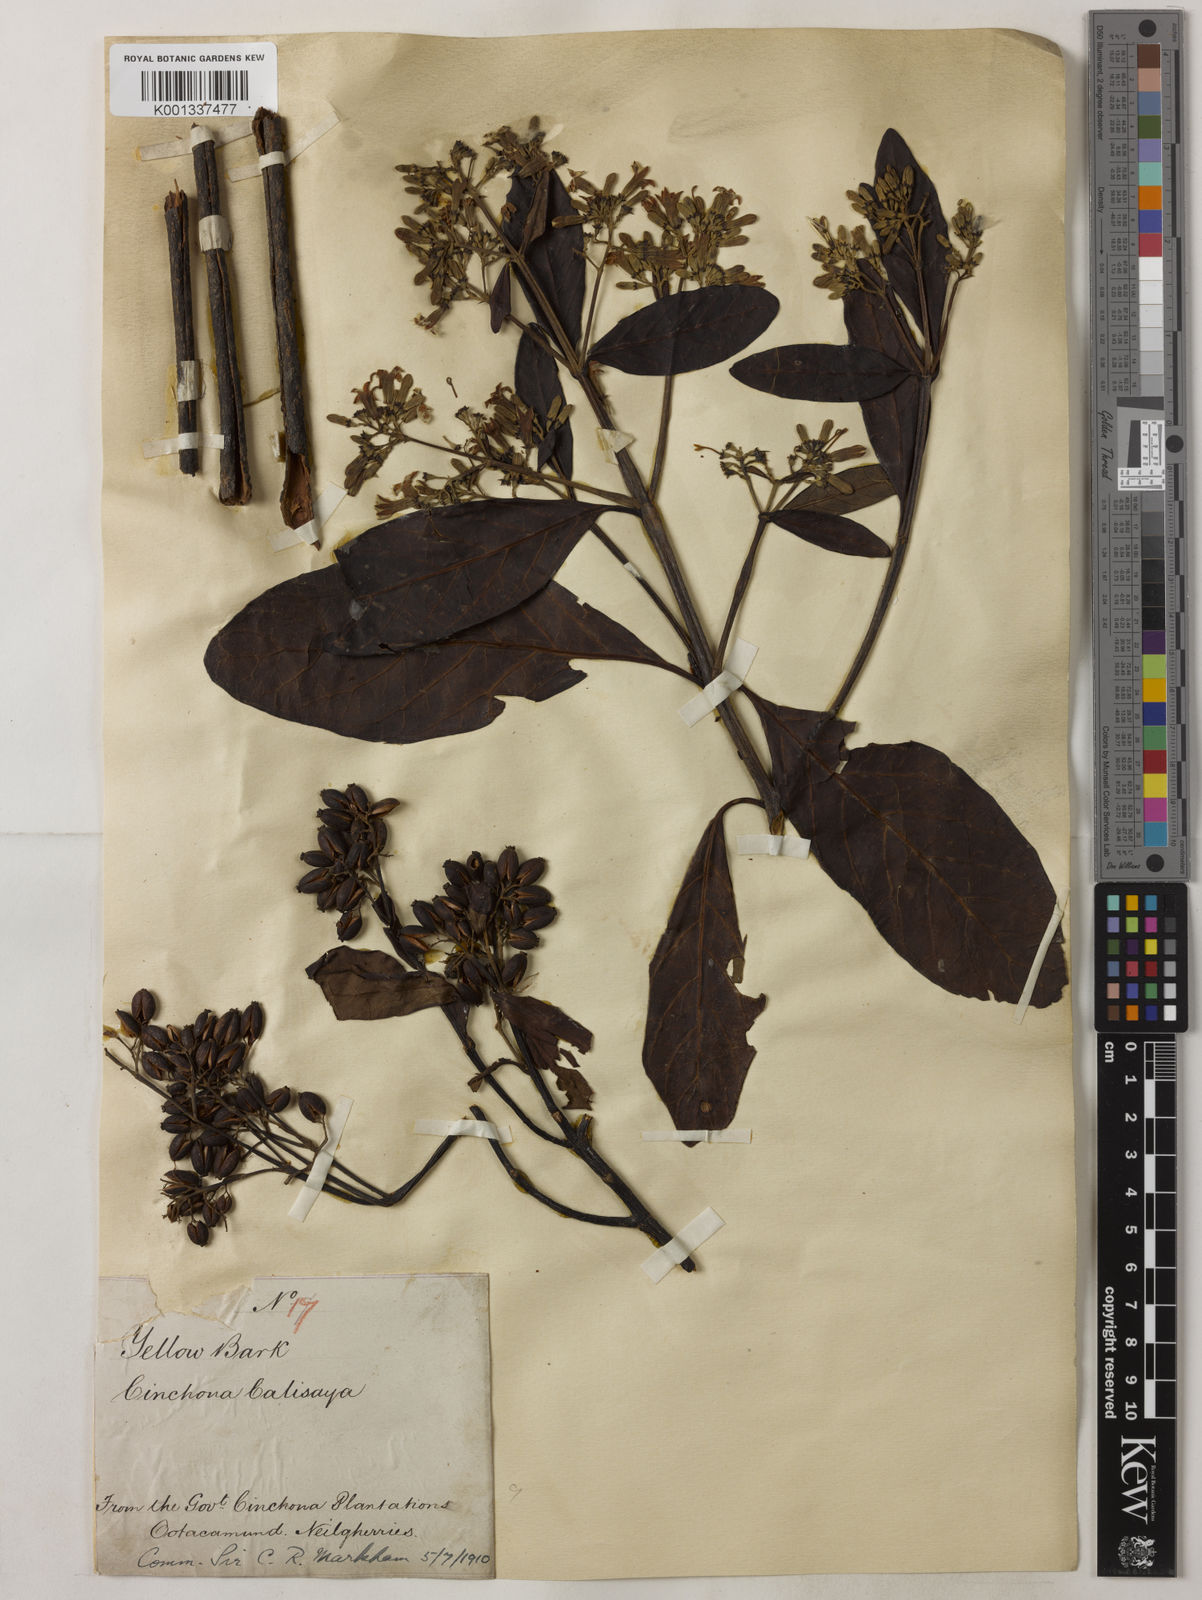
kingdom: Plantae
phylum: Tracheophyta
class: Magnoliopsida
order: Gentianales
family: Rubiaceae
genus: Cinchona
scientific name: Cinchona calisaya
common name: Ledgerbark
